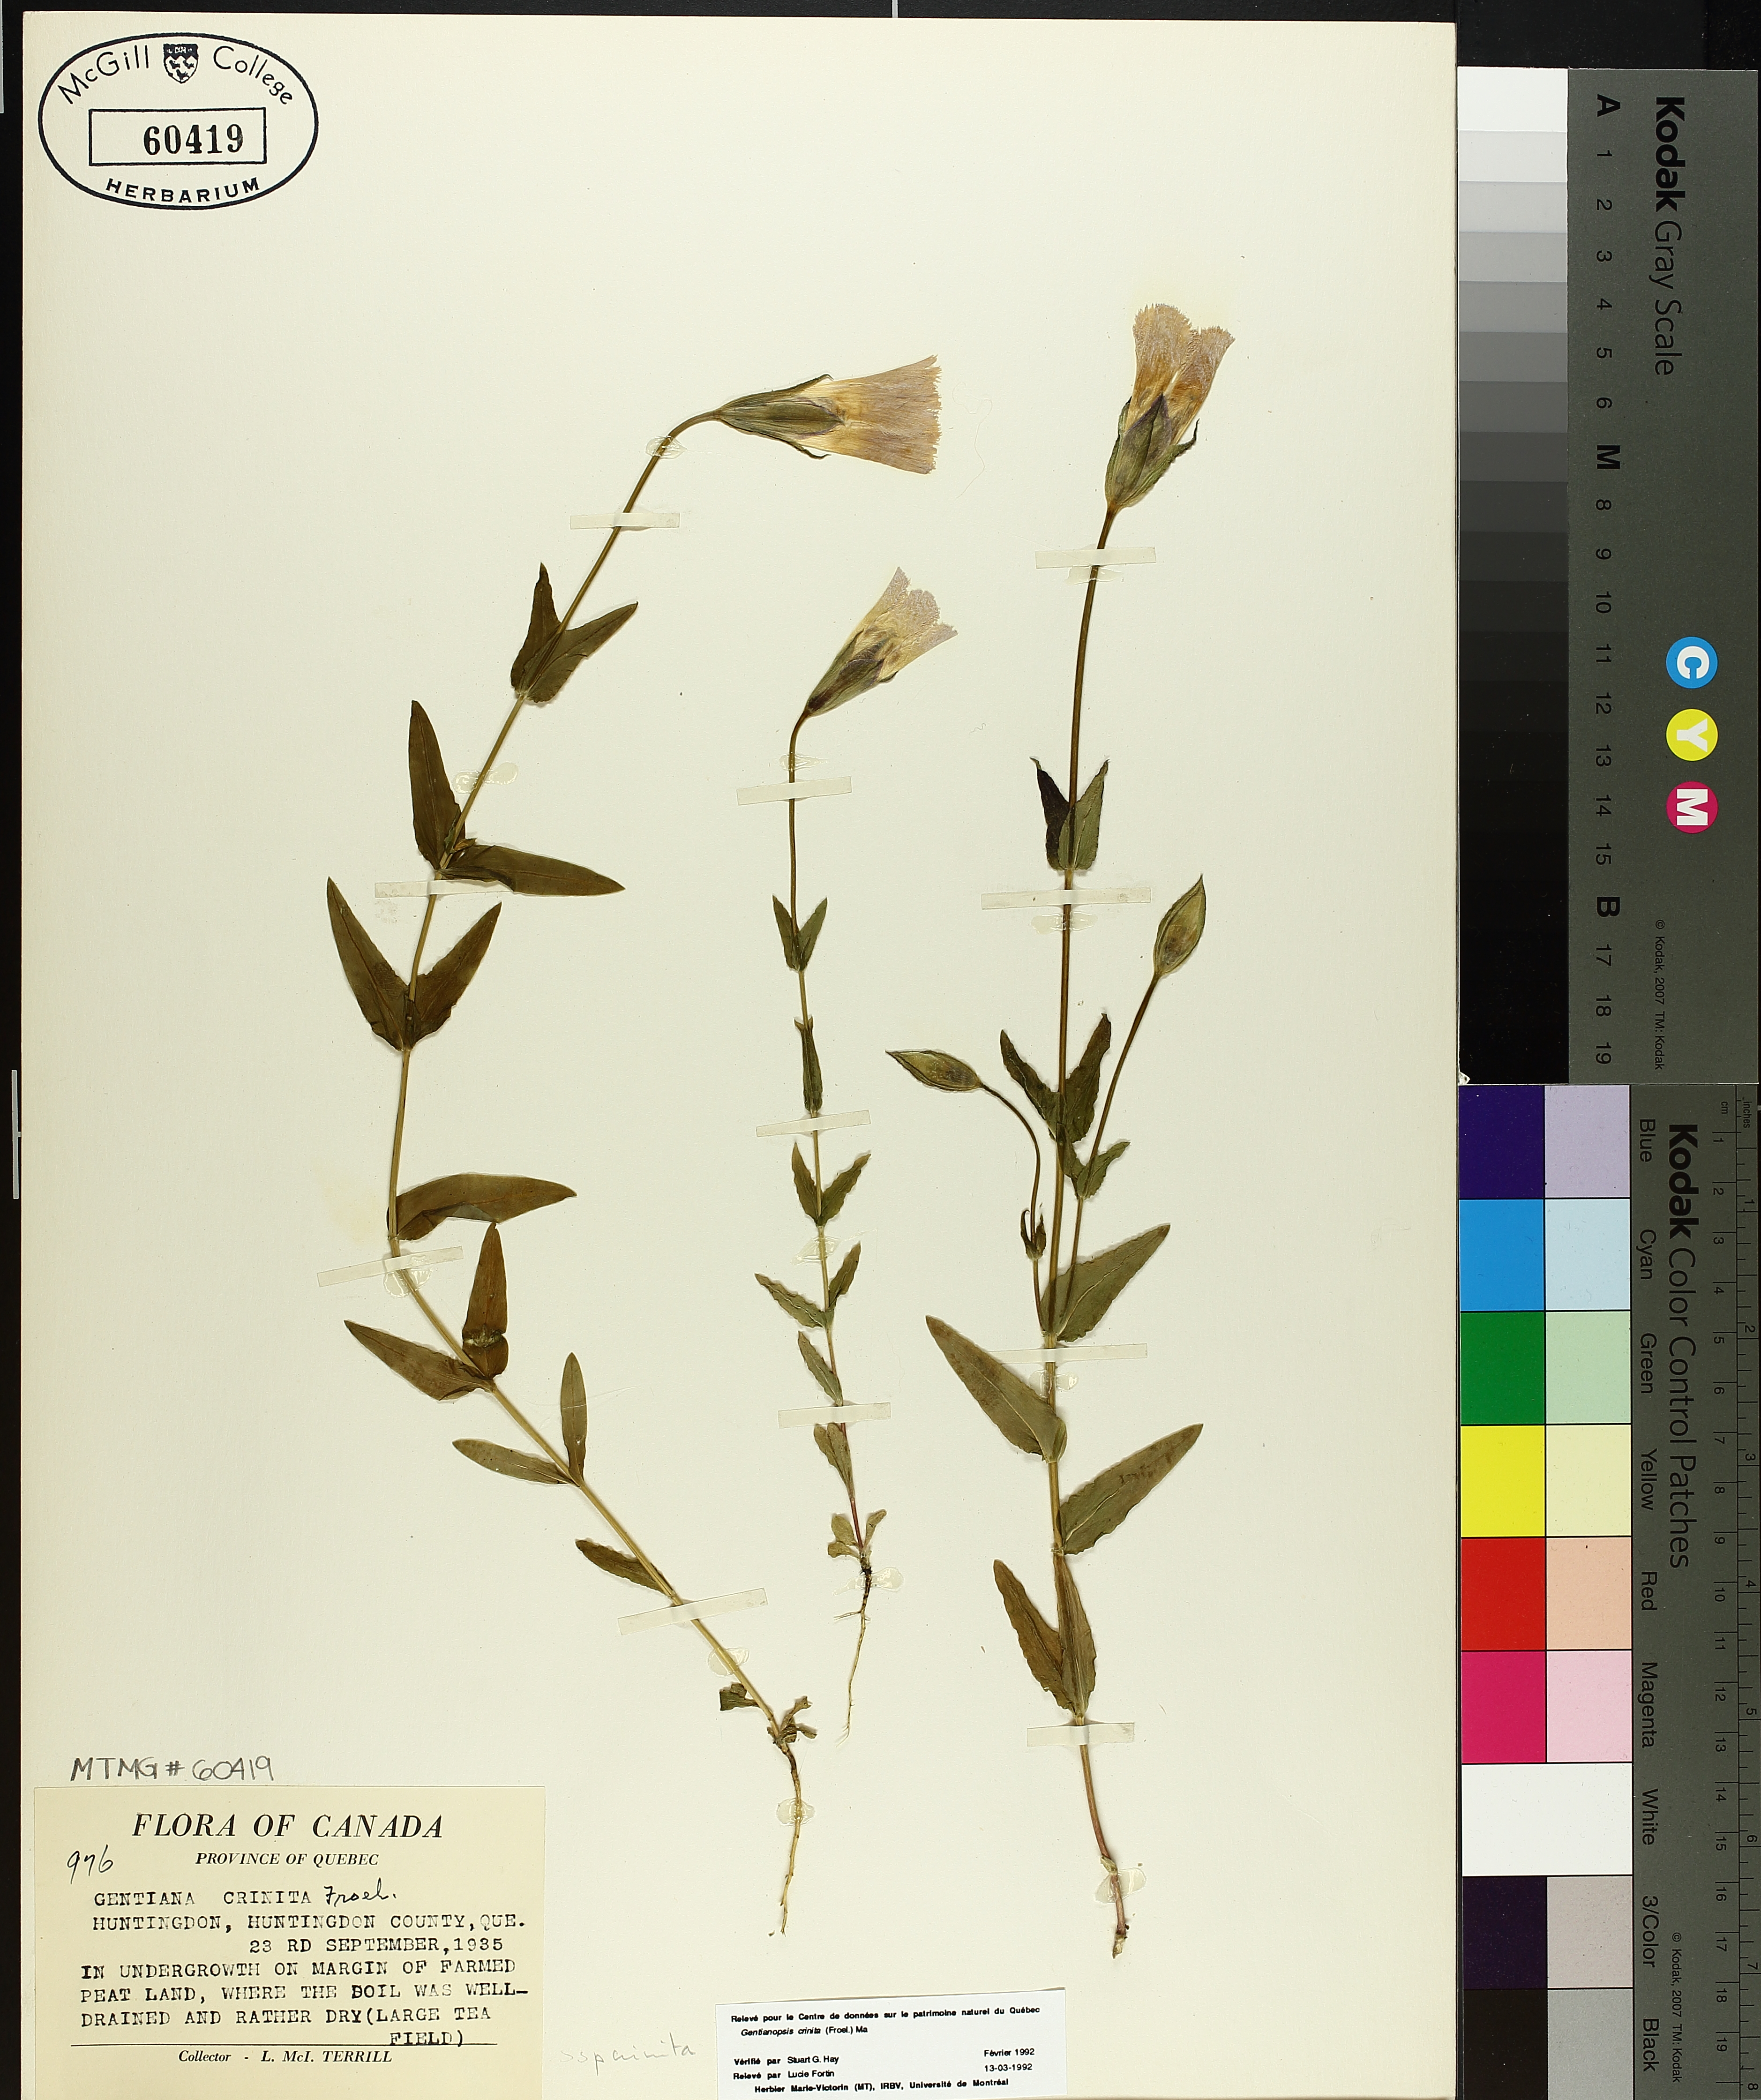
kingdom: Plantae
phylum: Tracheophyta
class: Magnoliopsida
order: Gentianales
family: Gentianaceae
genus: Gentianopsis
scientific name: Gentianopsis crinita
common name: Fringed-gentian
